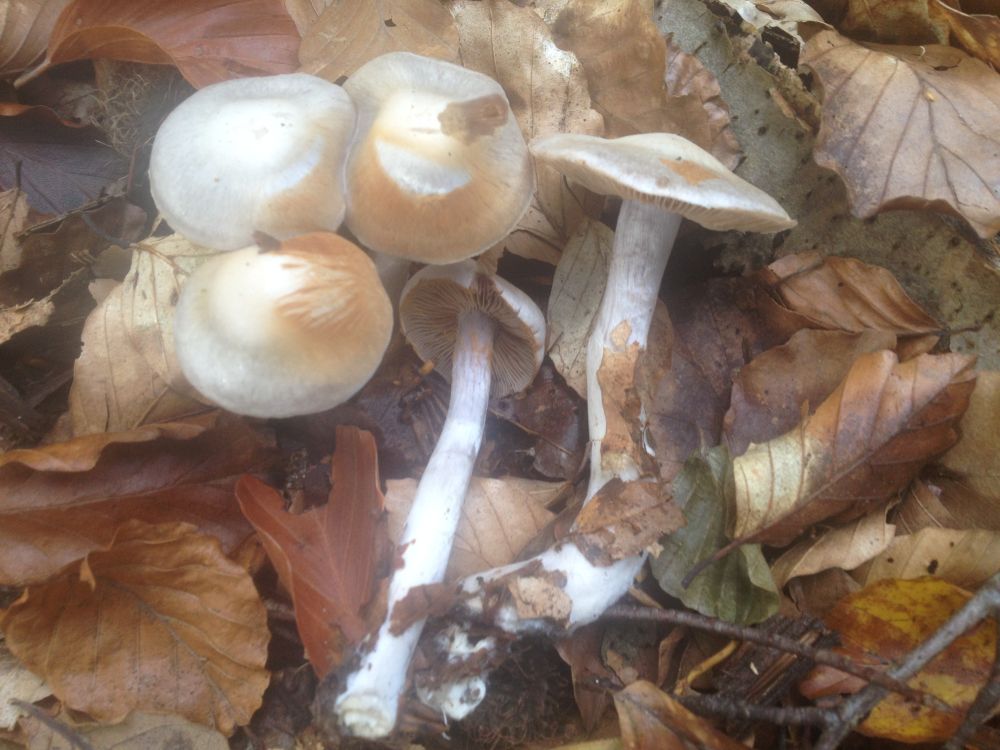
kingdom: Fungi
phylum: Basidiomycota
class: Agaricomycetes
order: Agaricales
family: Cortinariaceae
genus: Cortinarius
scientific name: Cortinarius alboviolaceus
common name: lysviolet slørhat
